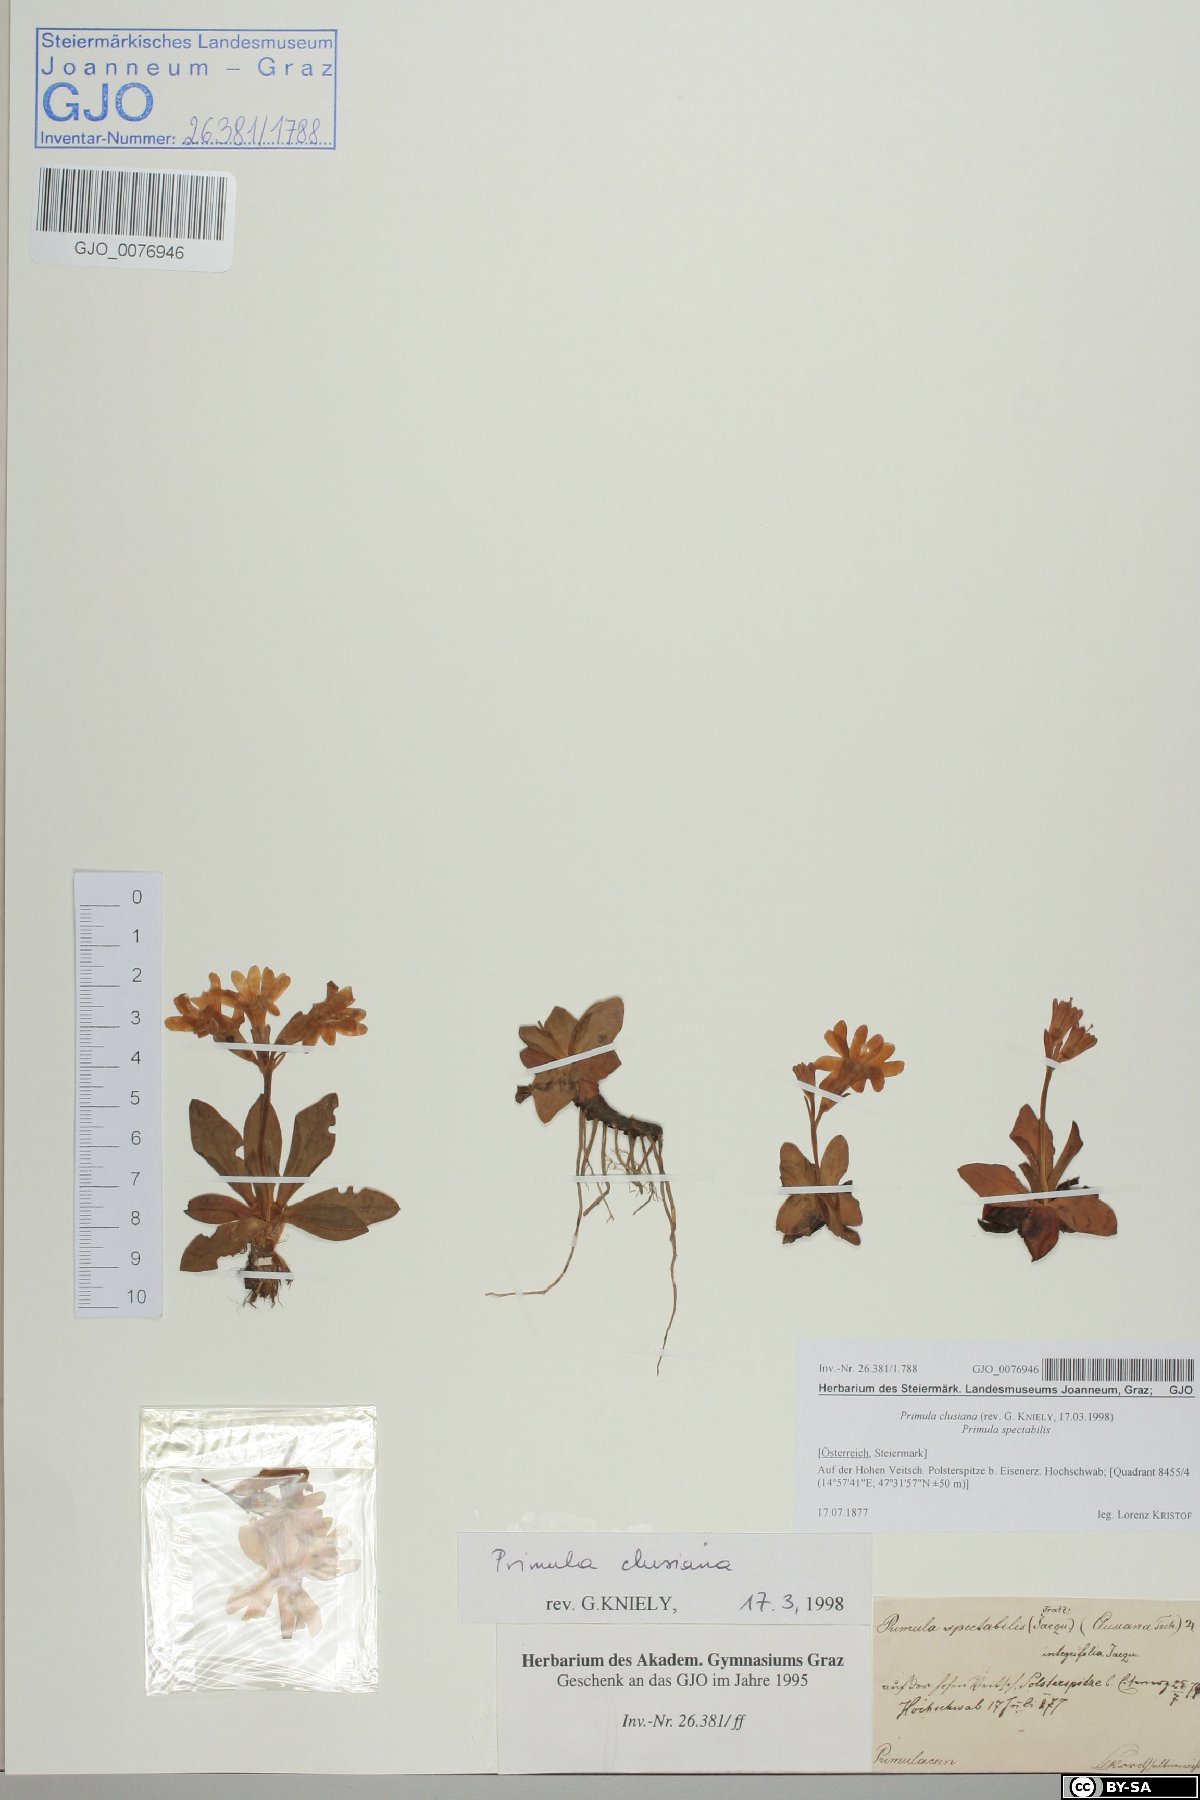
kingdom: Plantae
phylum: Tracheophyta
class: Magnoliopsida
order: Ericales
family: Primulaceae
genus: Primula
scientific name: Primula clusiana
